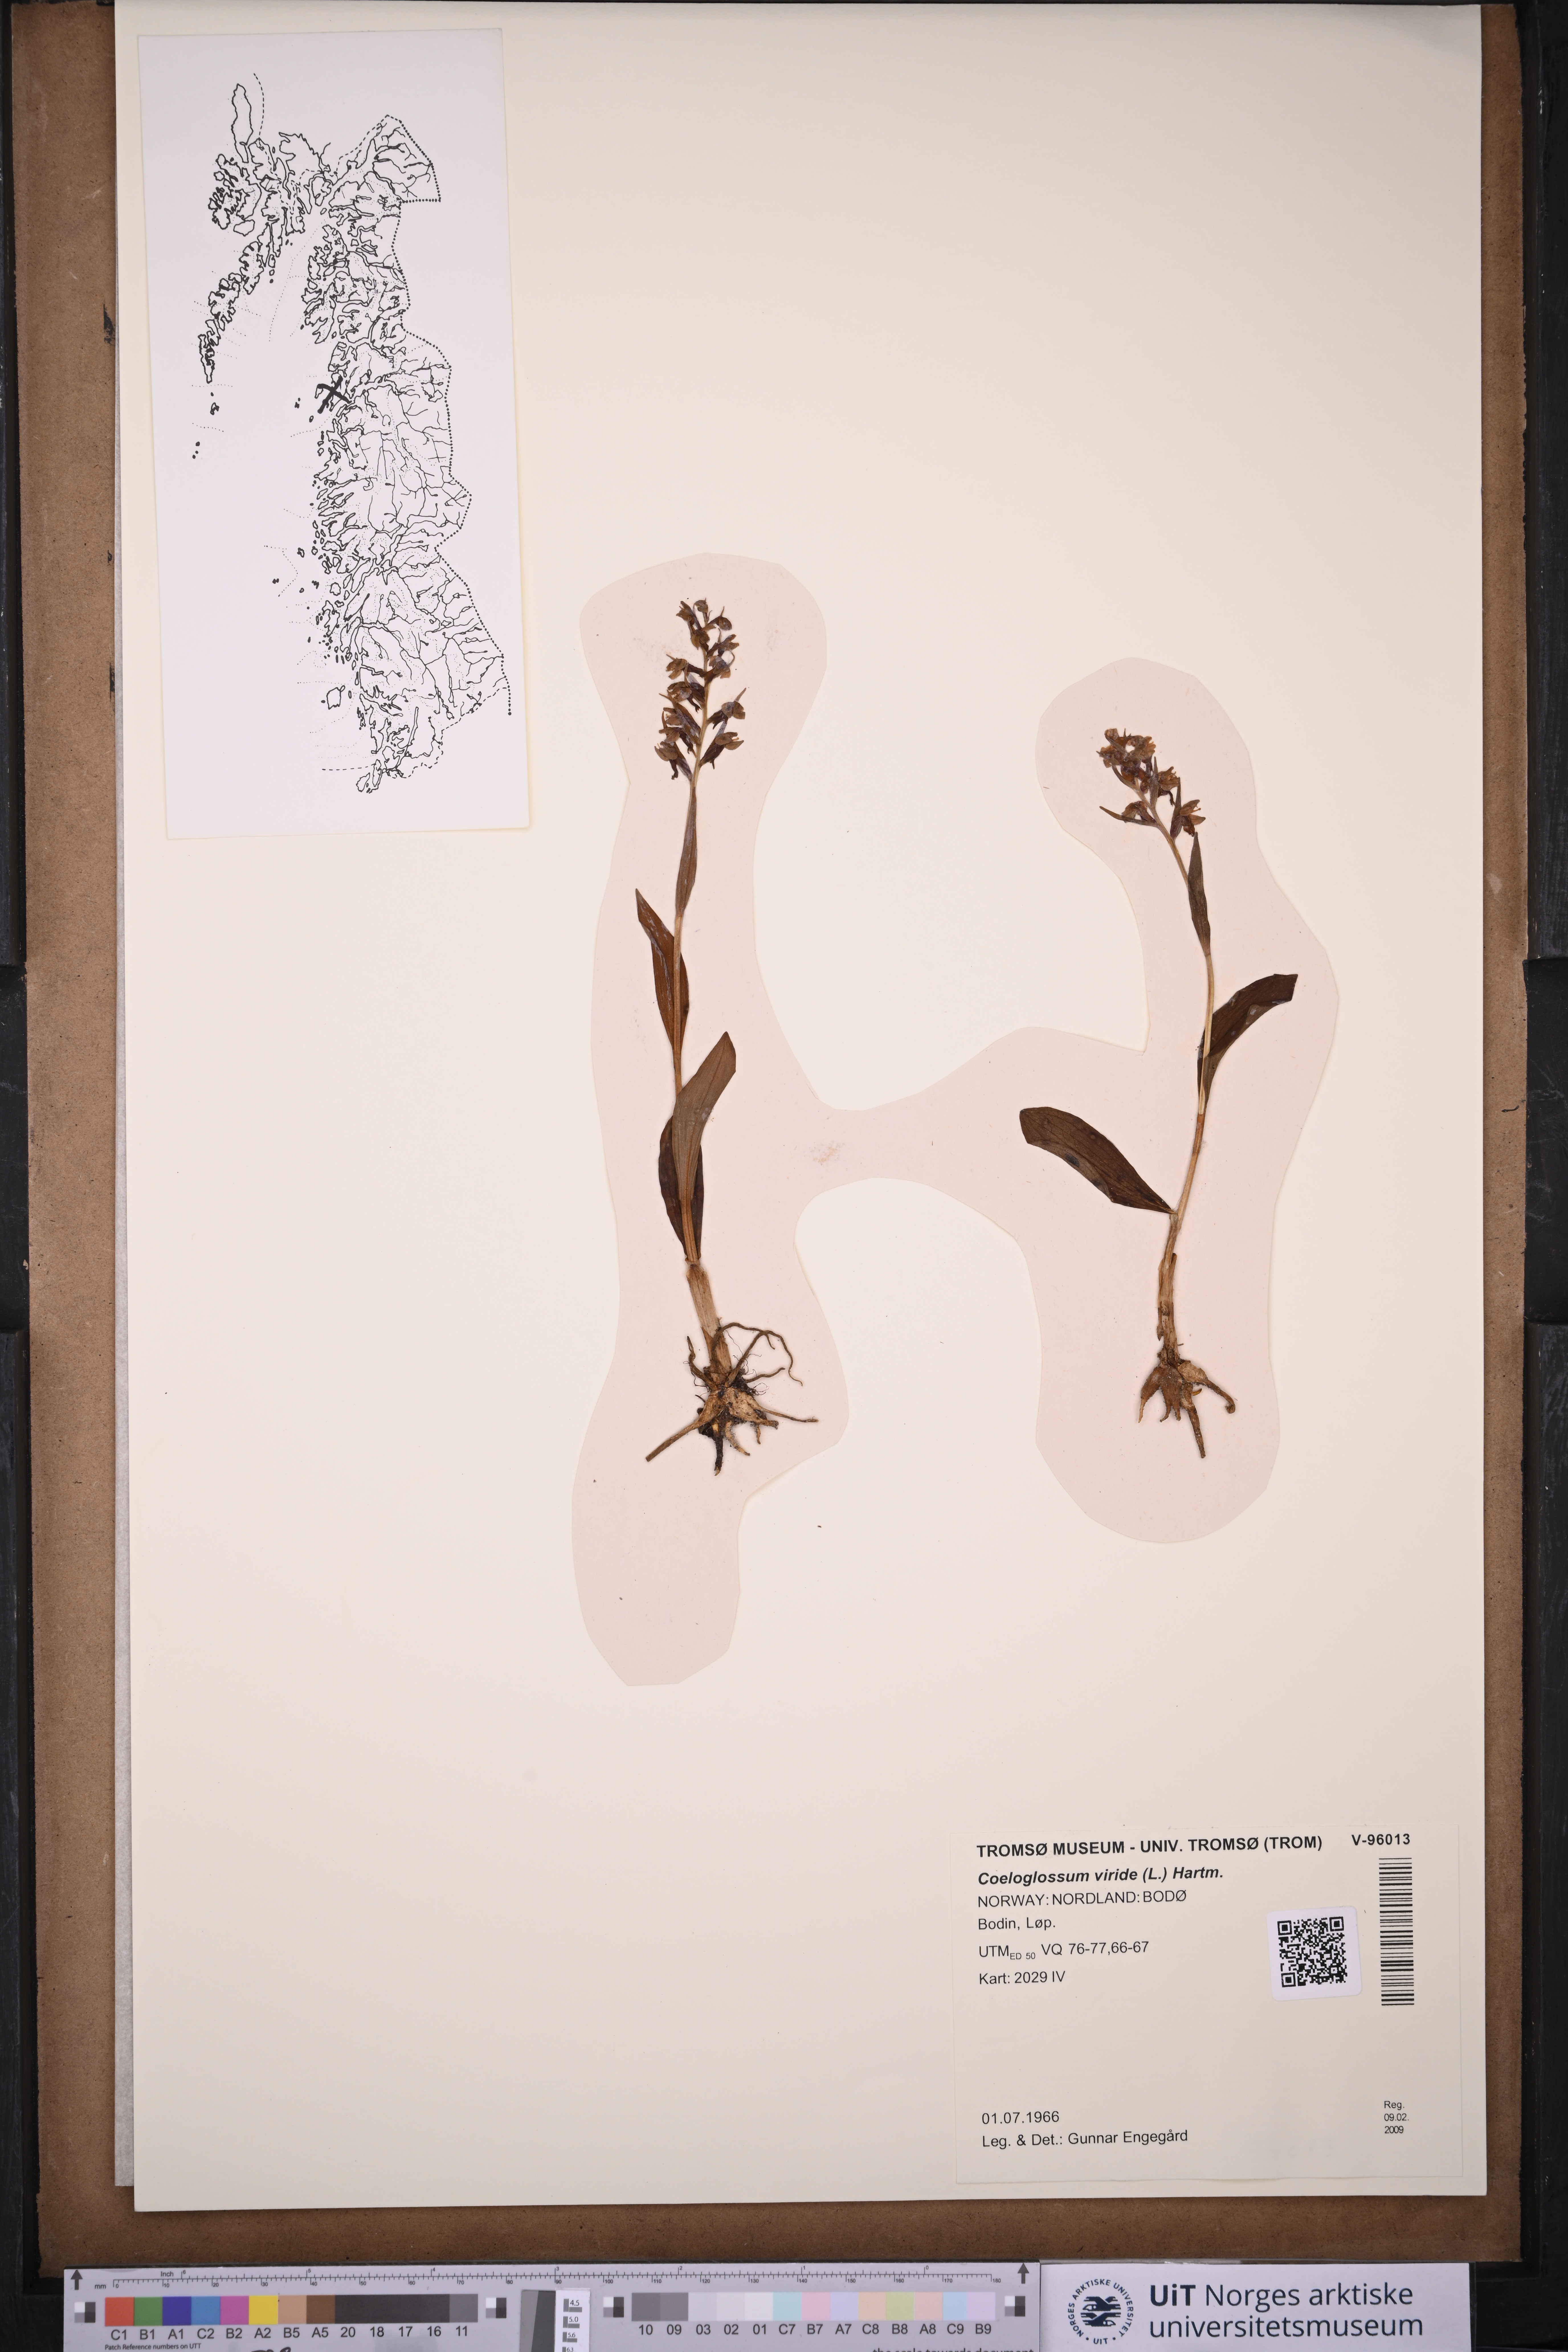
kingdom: Plantae
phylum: Tracheophyta
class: Liliopsida
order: Asparagales
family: Orchidaceae
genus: Dactylorhiza
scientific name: Dactylorhiza viridis
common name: Longbract frog orchid
